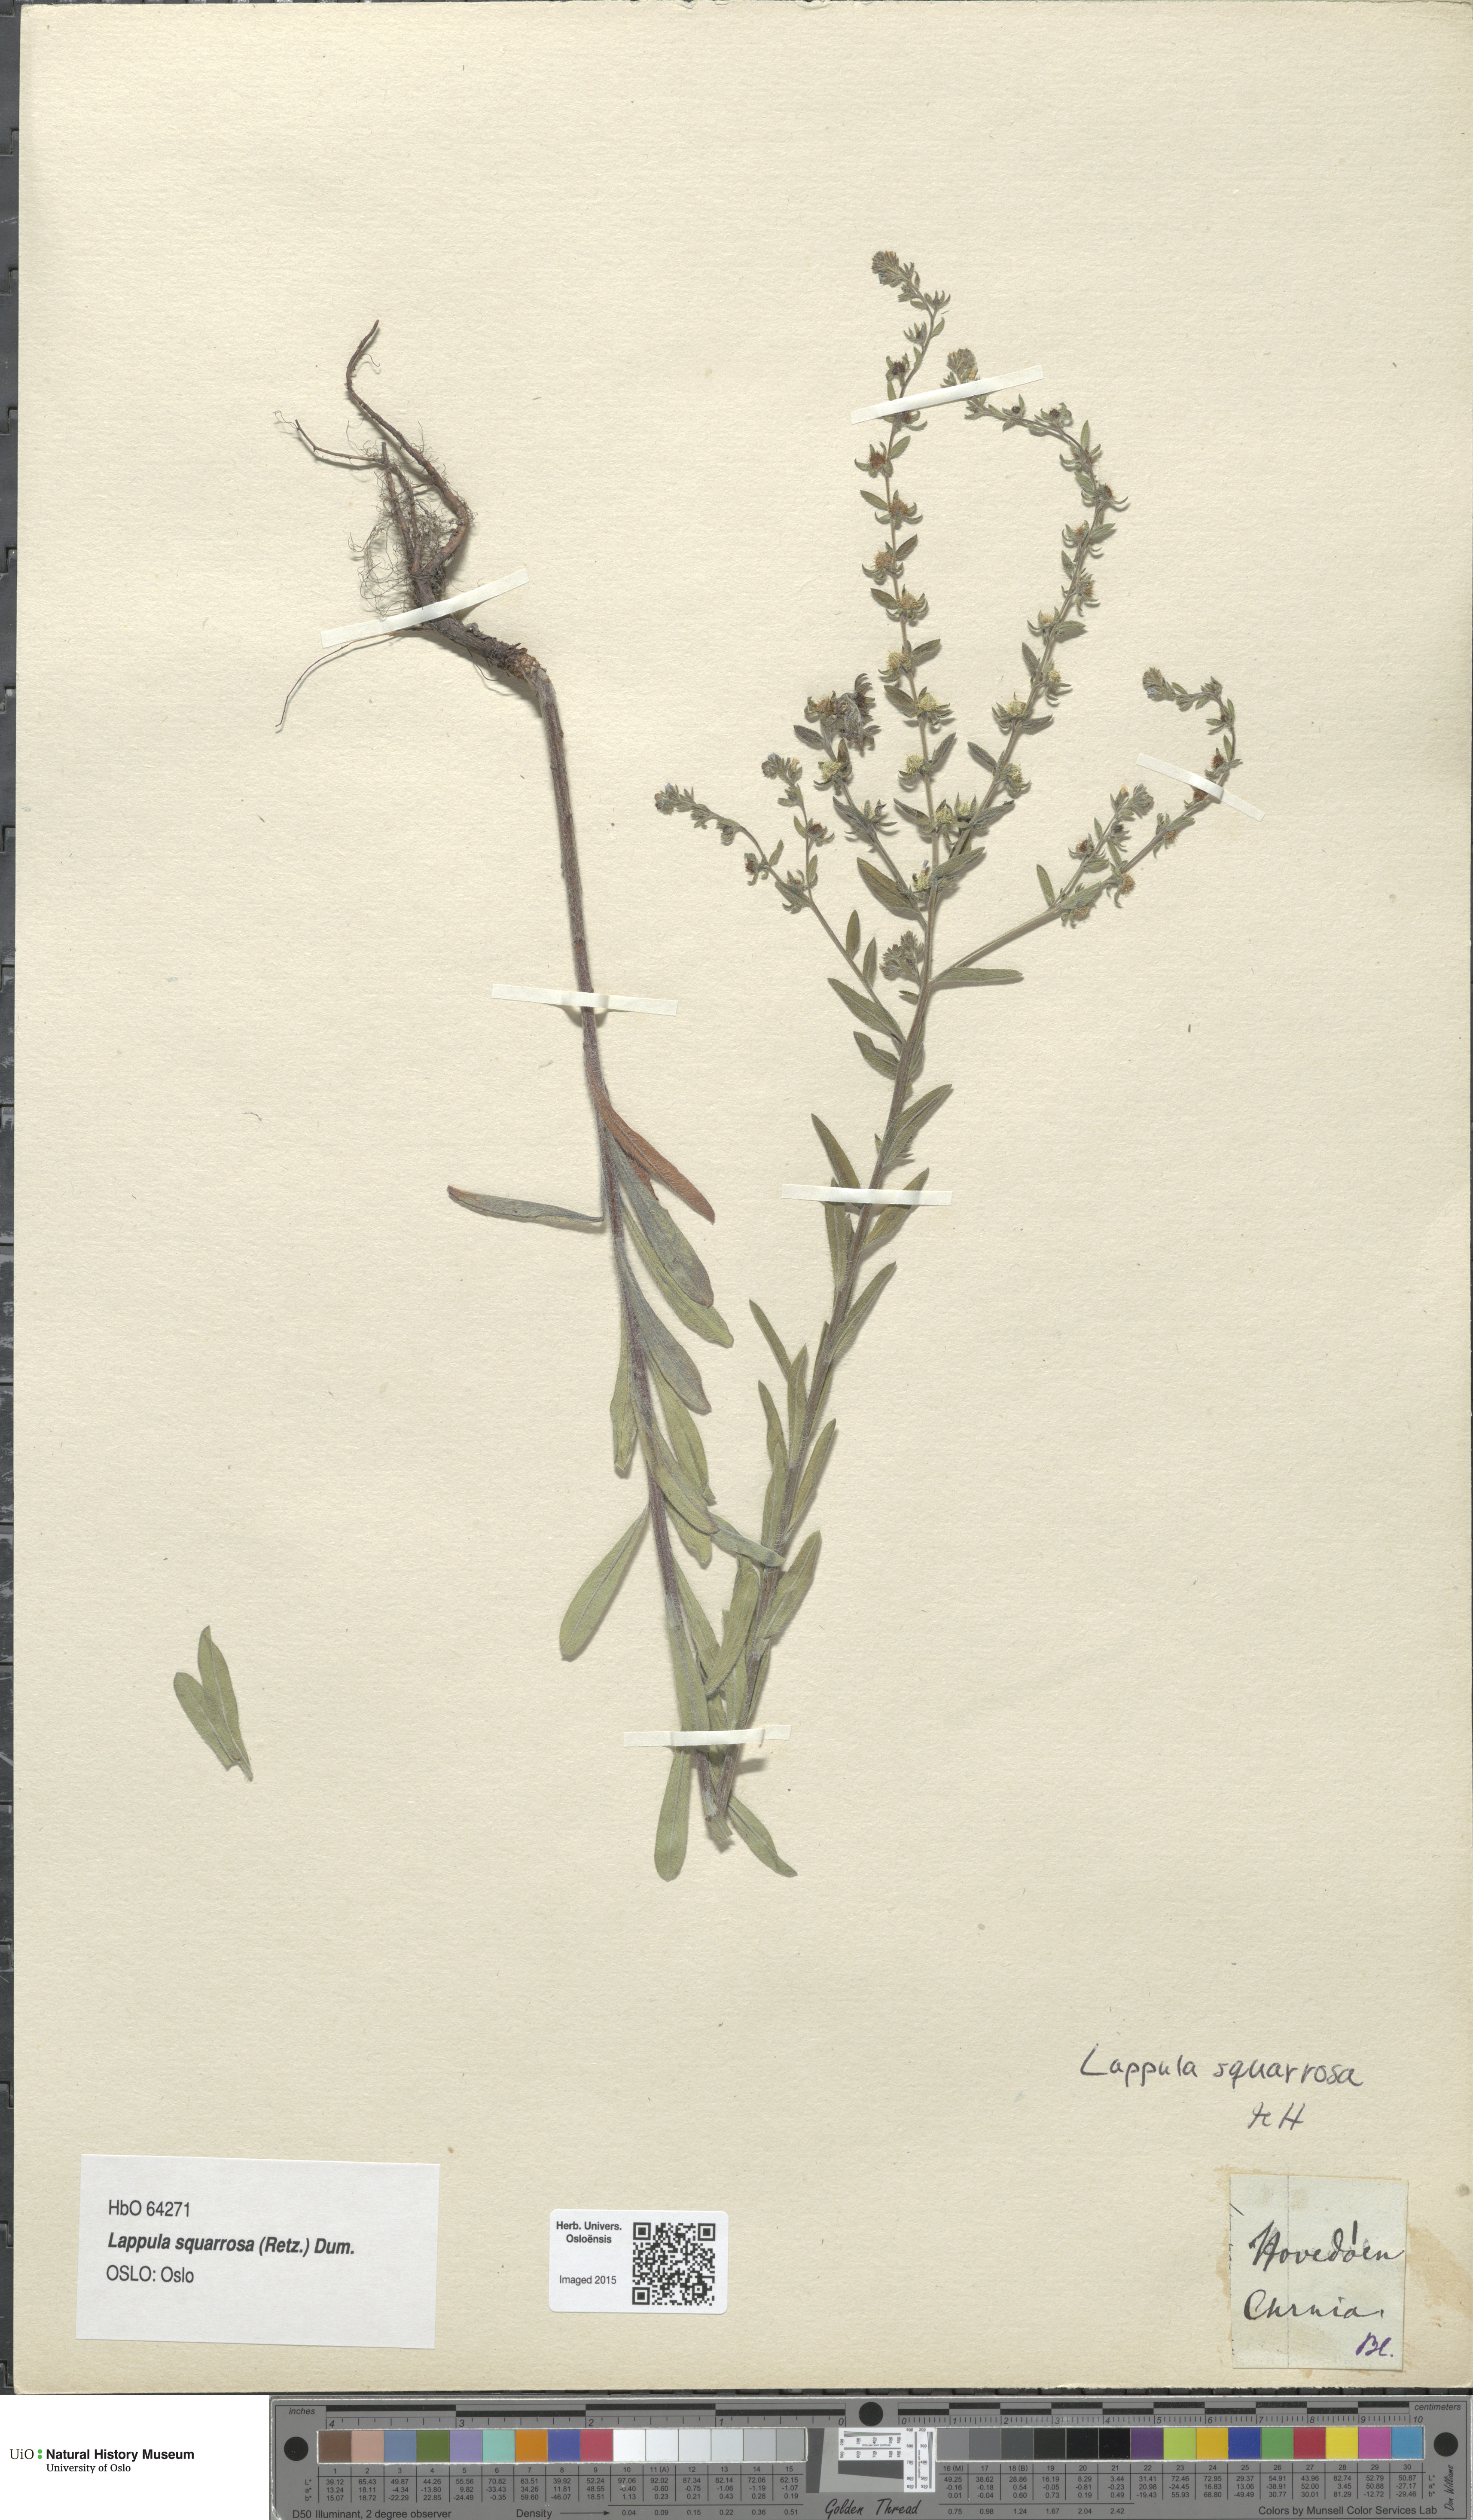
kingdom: Plantae
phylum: Tracheophyta
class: Magnoliopsida
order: Boraginales
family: Boraginaceae
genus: Lappula
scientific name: Lappula squarrosa
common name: European stickseed
